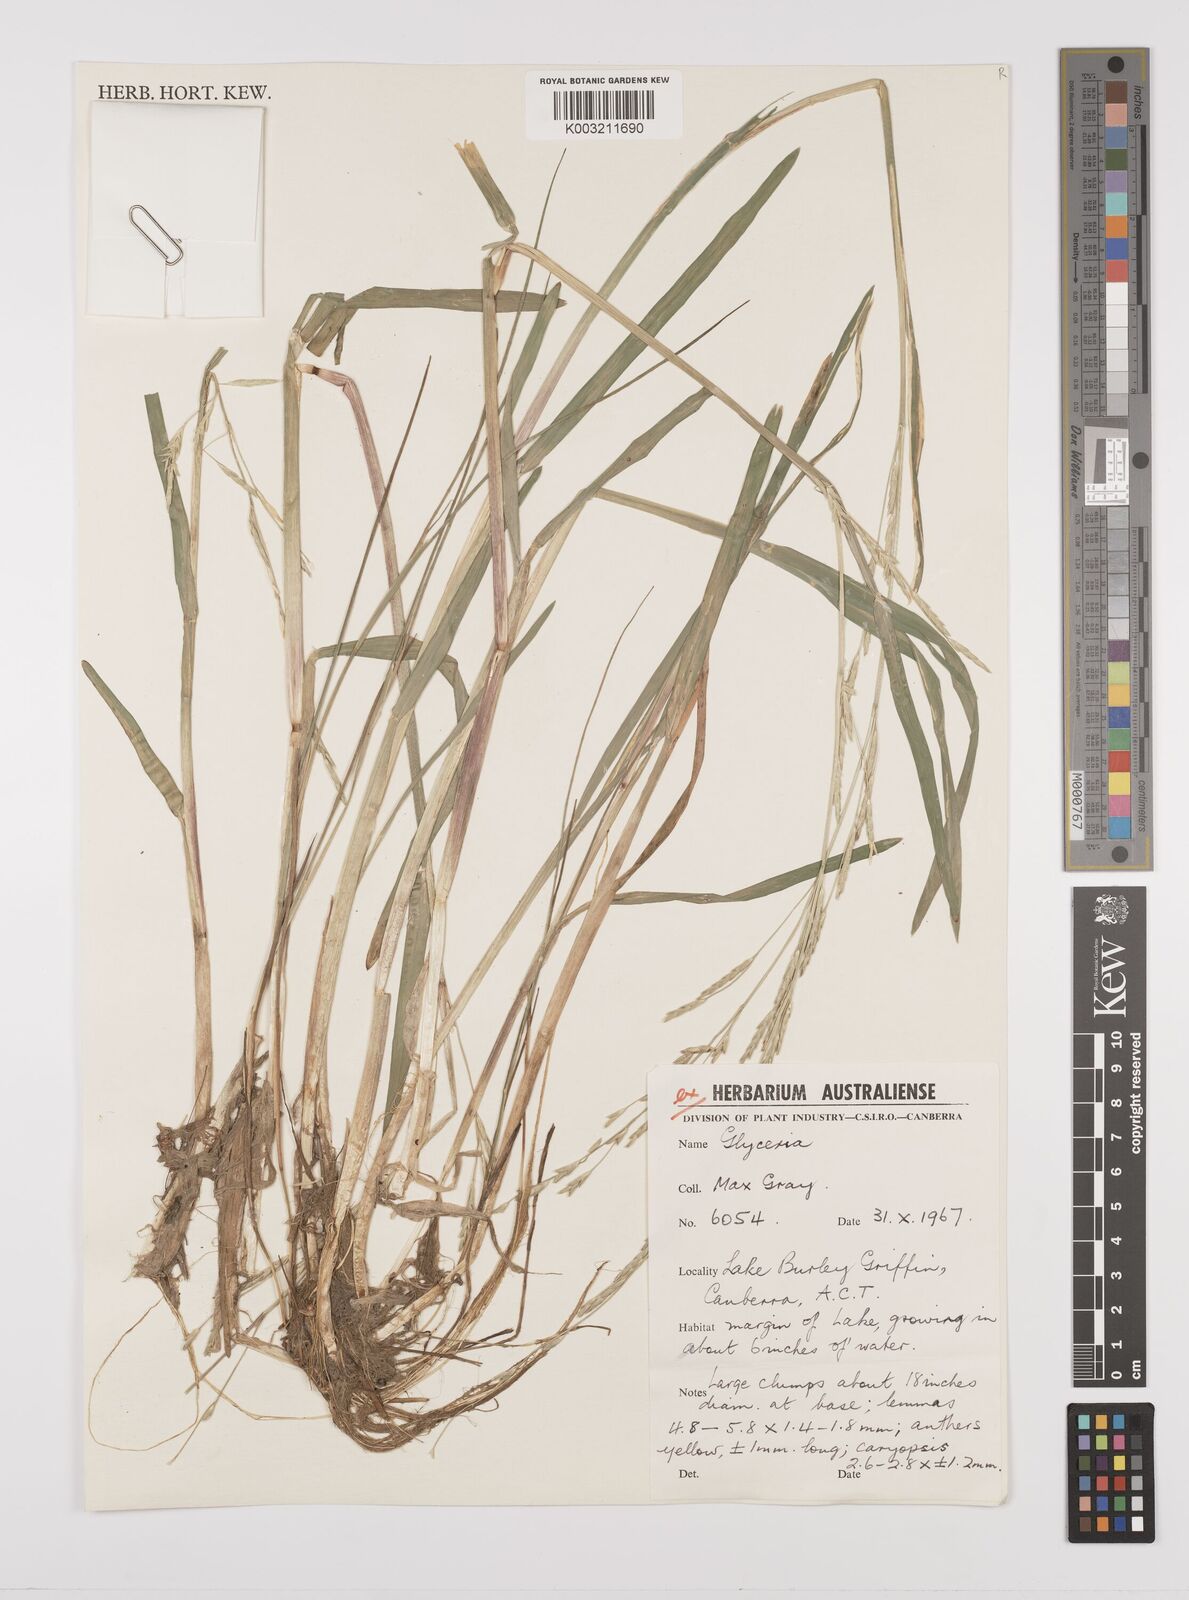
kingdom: Plantae
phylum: Tracheophyta
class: Liliopsida
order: Poales
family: Poaceae
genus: Glyceria
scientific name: Glyceria
